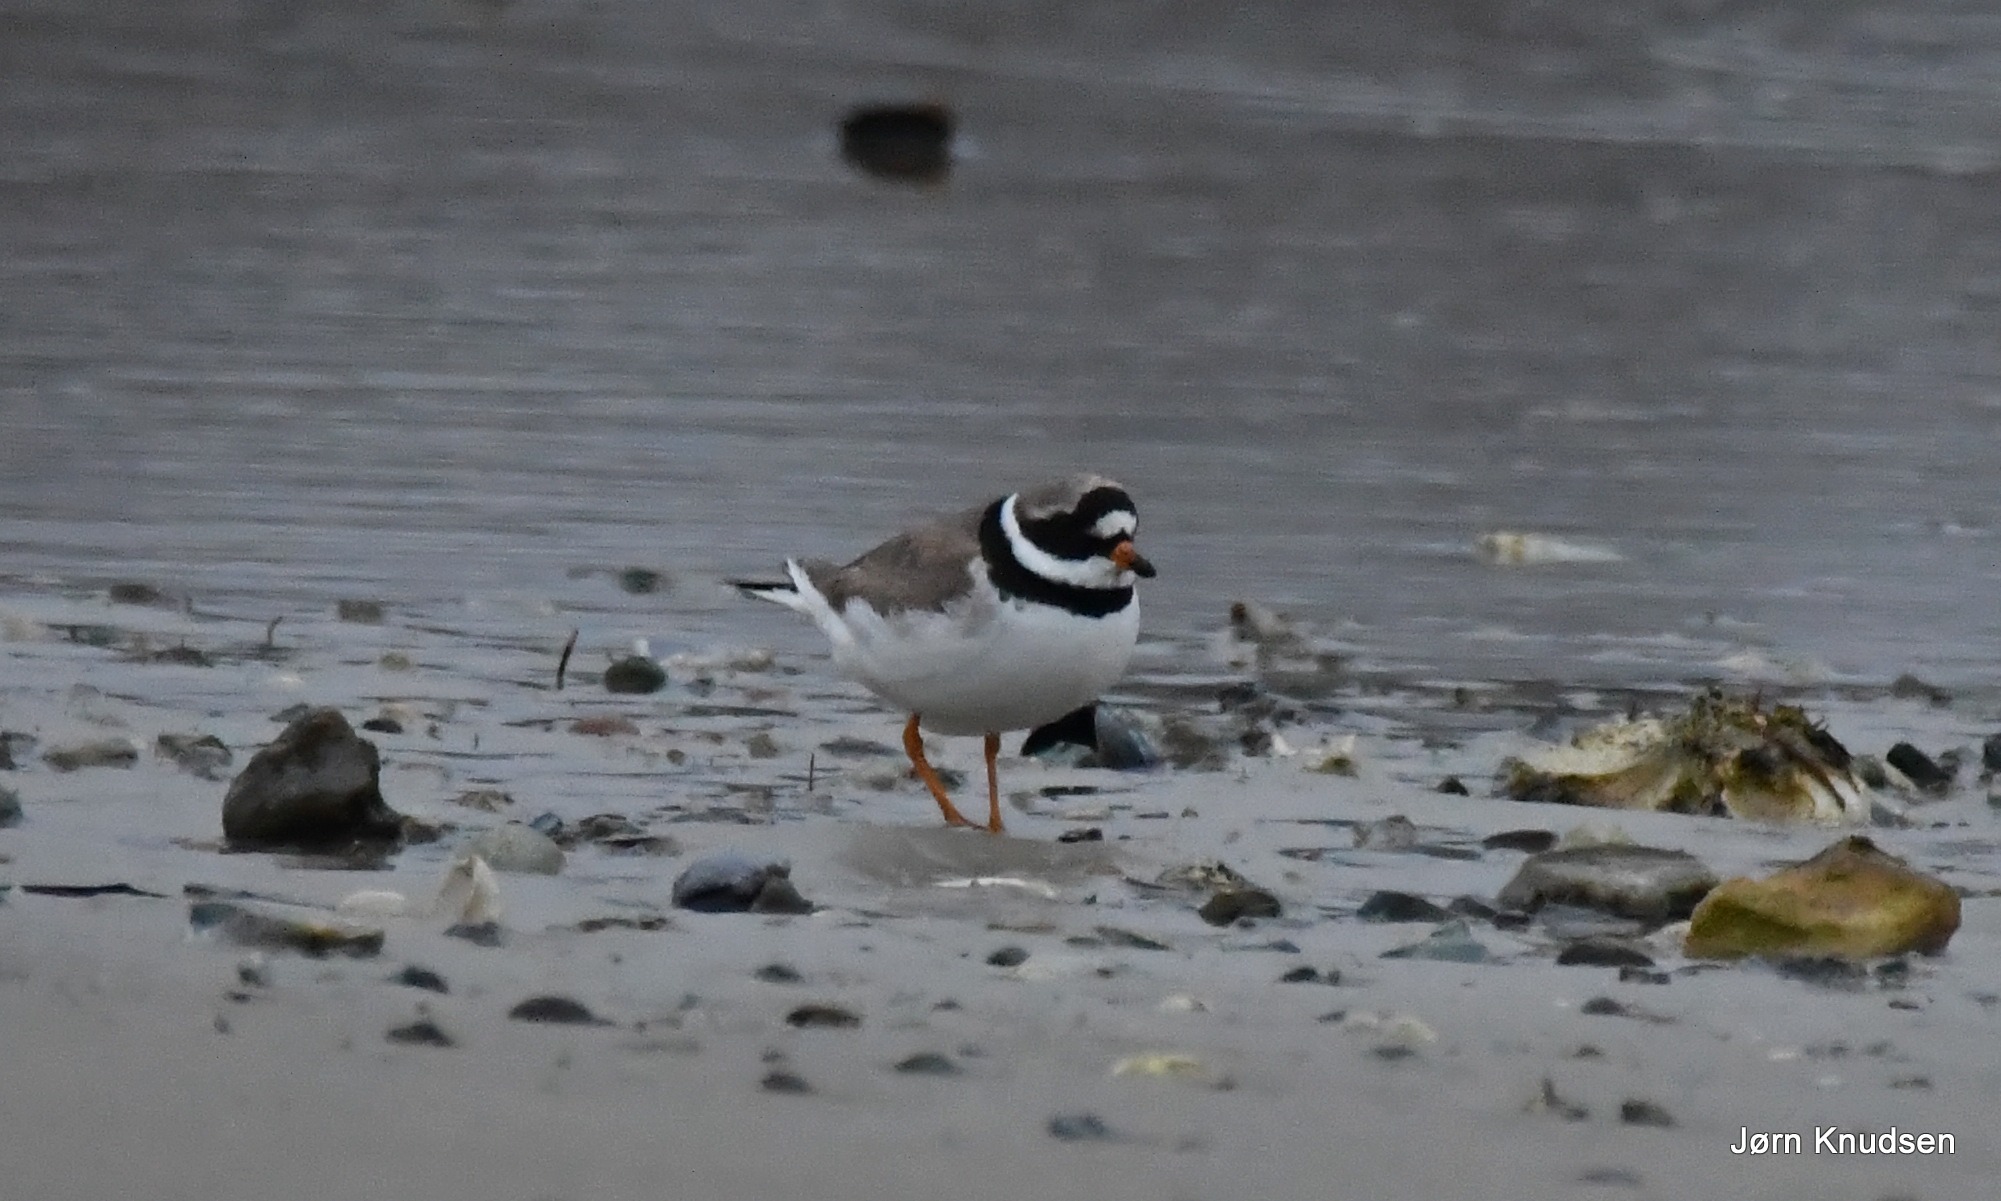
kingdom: Animalia
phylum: Chordata
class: Aves
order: Charadriiformes
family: Charadriidae
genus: Charadrius
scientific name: Charadrius hiaticula
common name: Stor præstekrave
